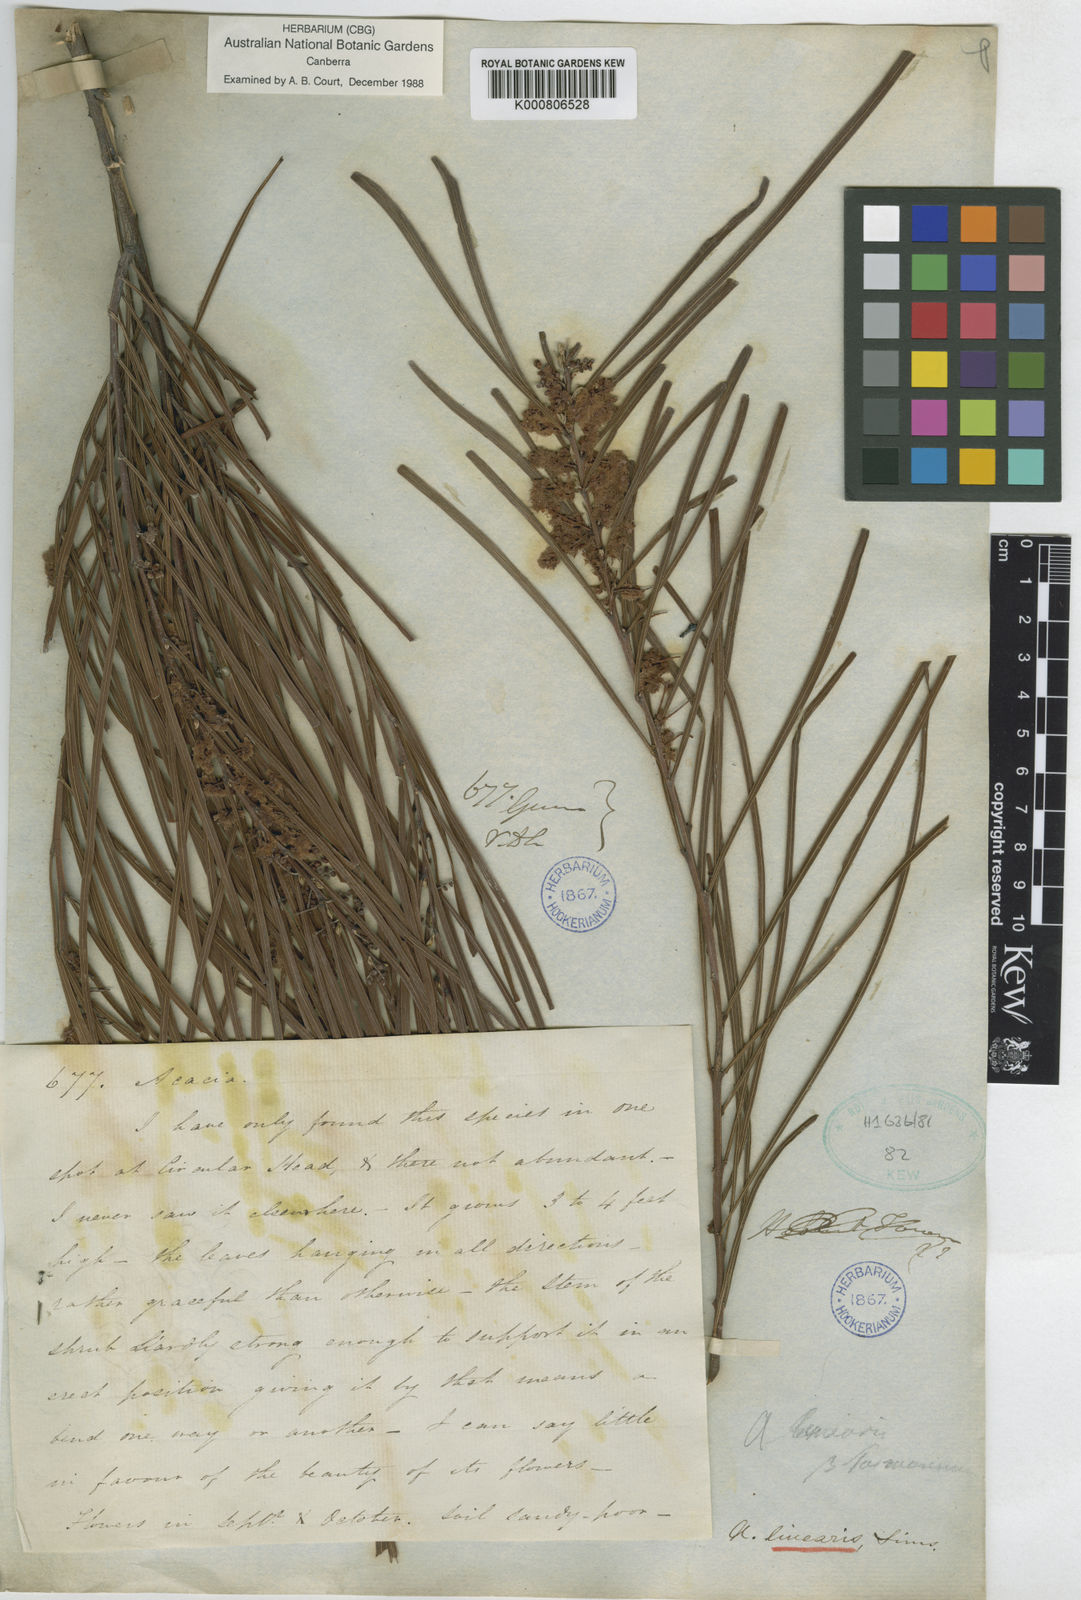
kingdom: Plantae
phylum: Tracheophyta
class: Magnoliopsida
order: Fabales
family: Fabaceae
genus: Acacia
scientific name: Acacia longissima
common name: Longleaf wattle
